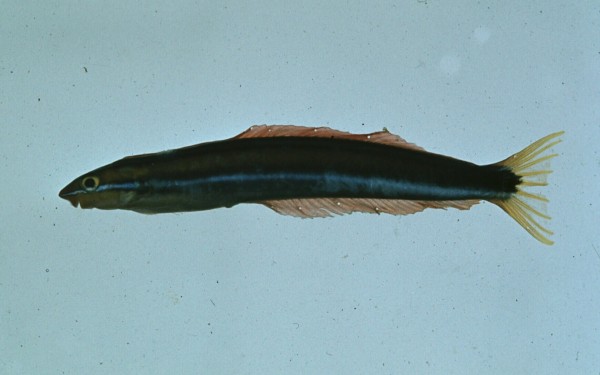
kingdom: Animalia
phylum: Chordata
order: Perciformes
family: Blenniidae
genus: Plagiotremus
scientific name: Plagiotremus rhinorhynchos
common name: Bluestriped fangblenny
